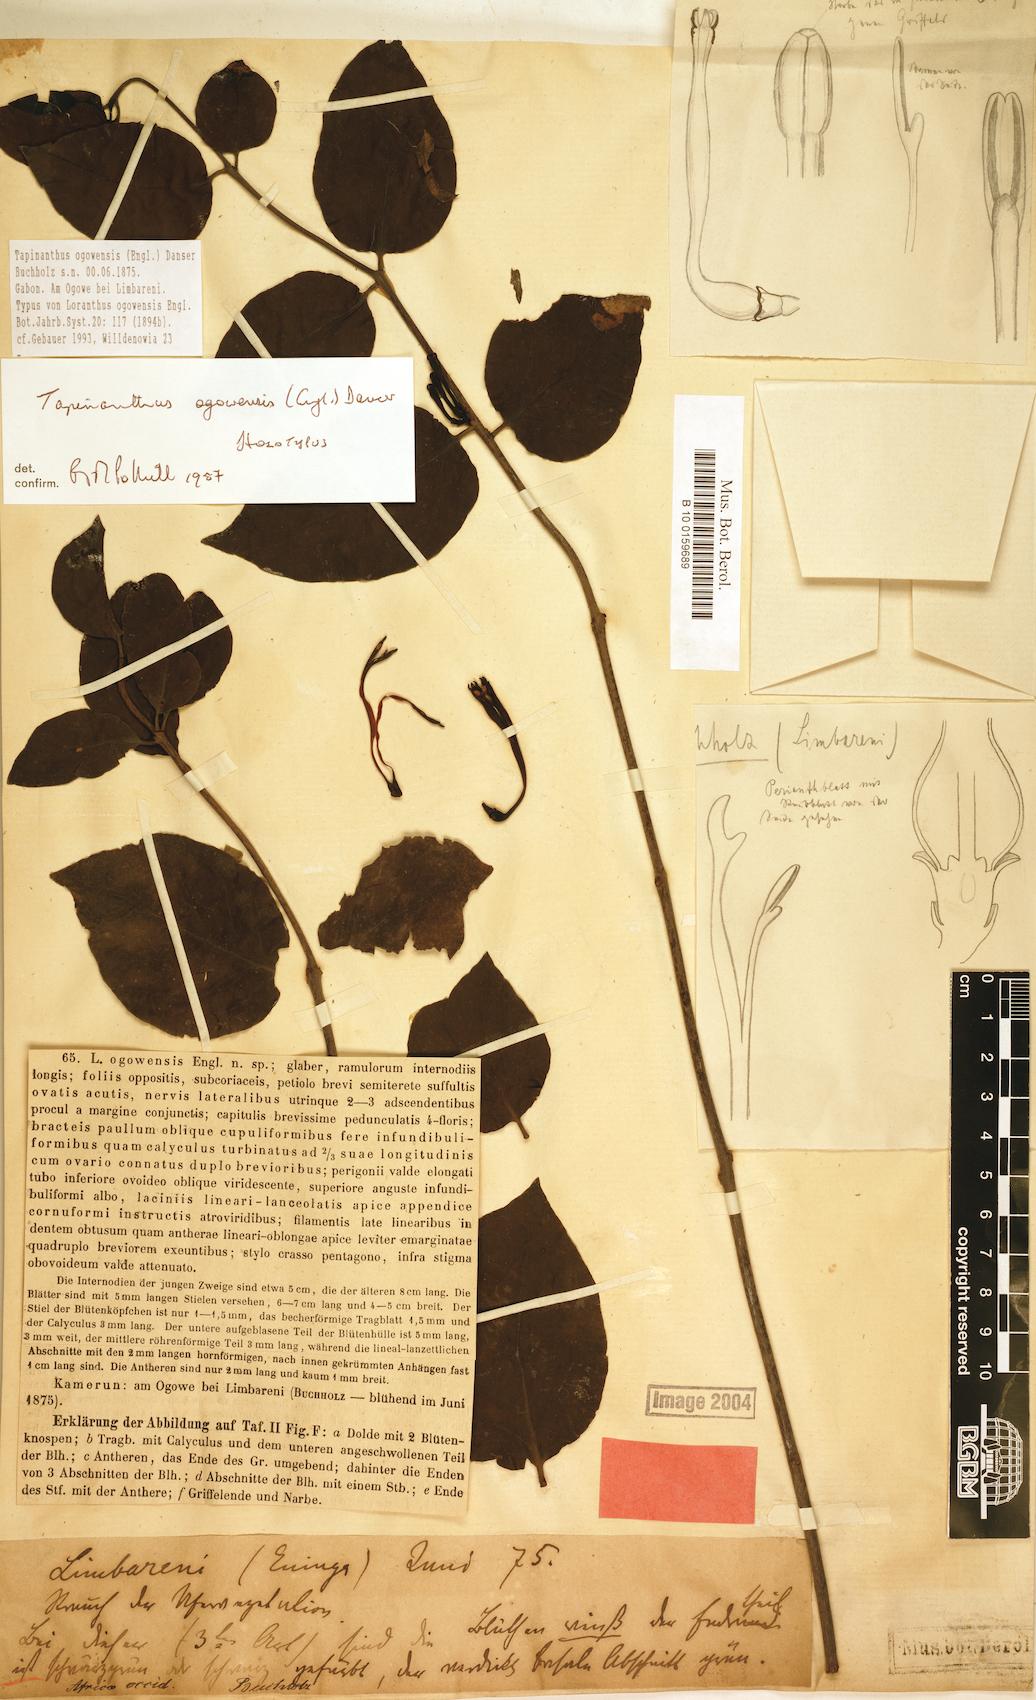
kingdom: Plantae
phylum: Tracheophyta
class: Magnoliopsida
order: Santalales
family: Loranthaceae
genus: Tapinanthus
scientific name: Tapinanthus ogowensis
